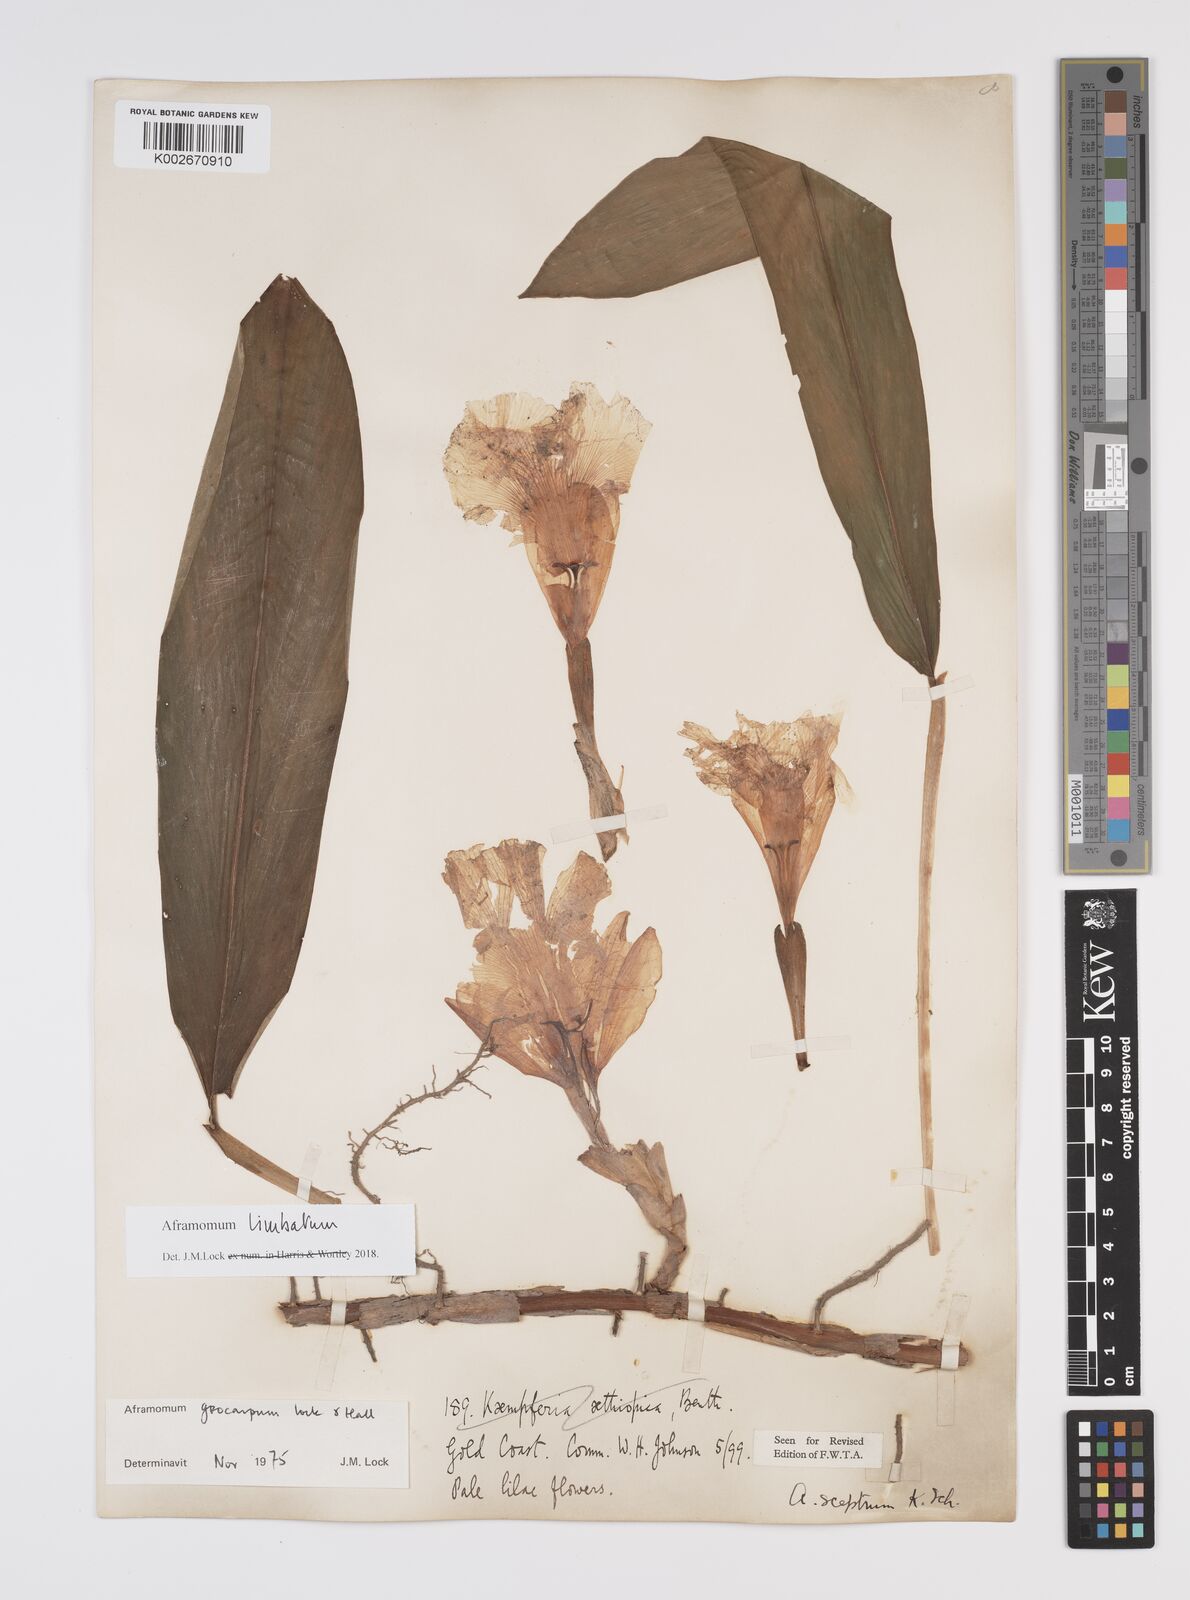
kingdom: Plantae
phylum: Tracheophyta
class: Liliopsida
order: Zingiberales
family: Zingiberaceae
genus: Aframomum
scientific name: Aframomum limbatum
